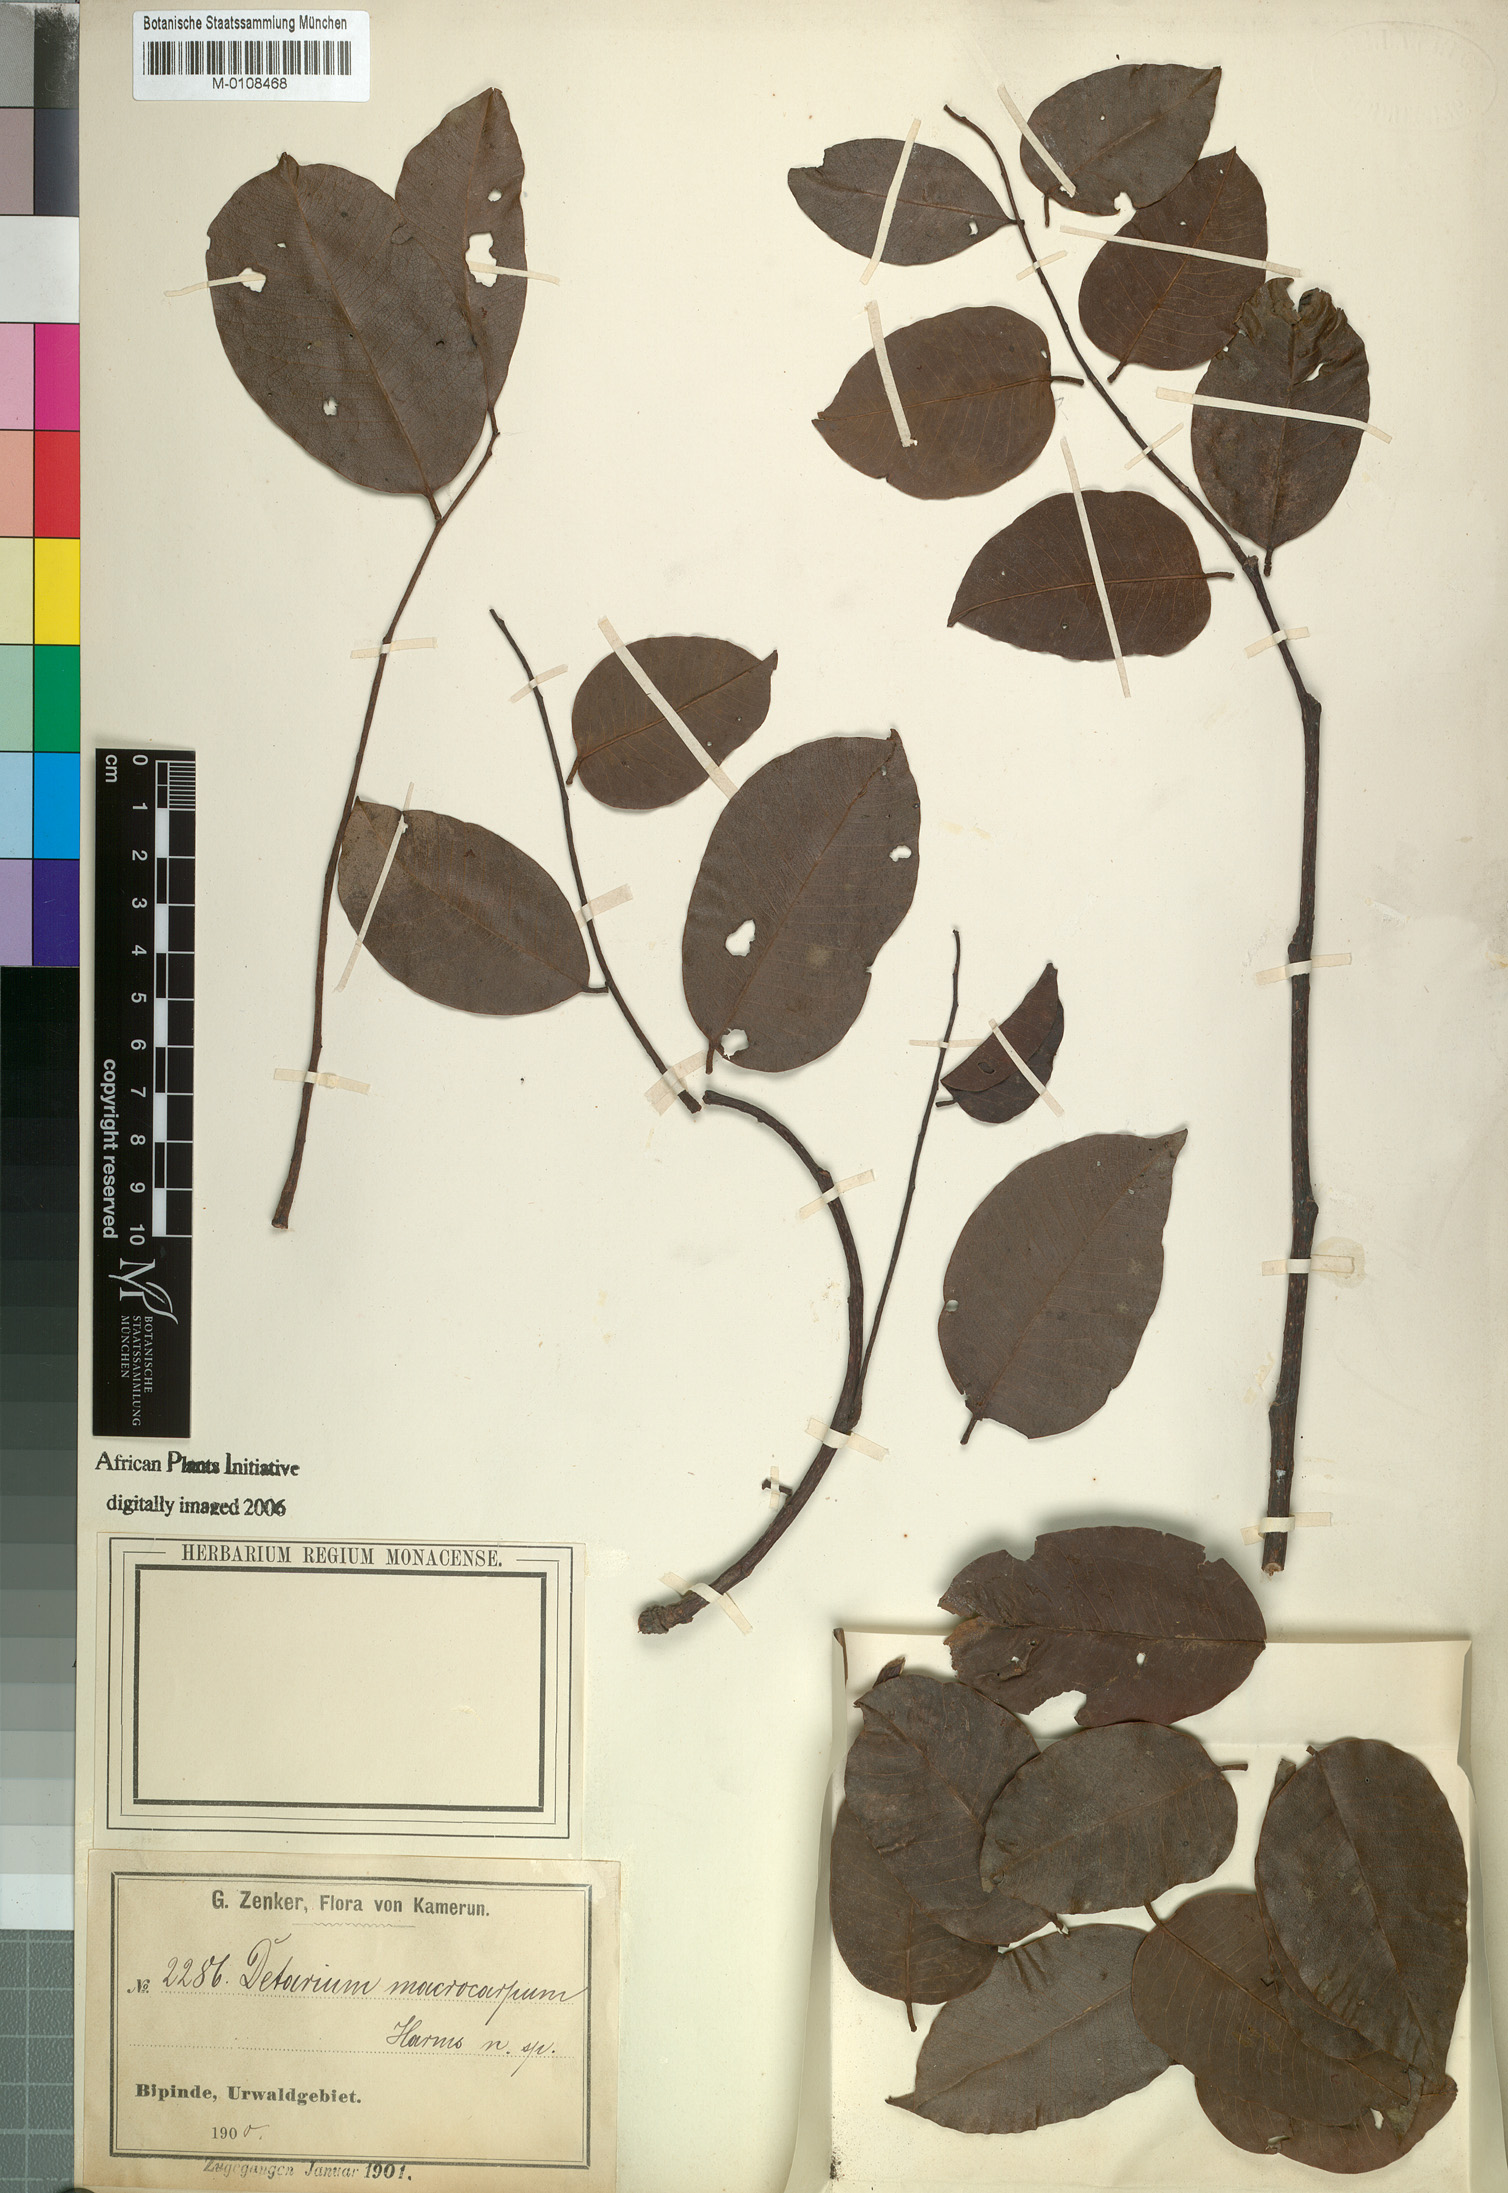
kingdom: Plantae
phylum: Tracheophyta
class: Magnoliopsida
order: Fabales
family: Fabaceae
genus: Detarium
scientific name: Detarium macrocarpum
